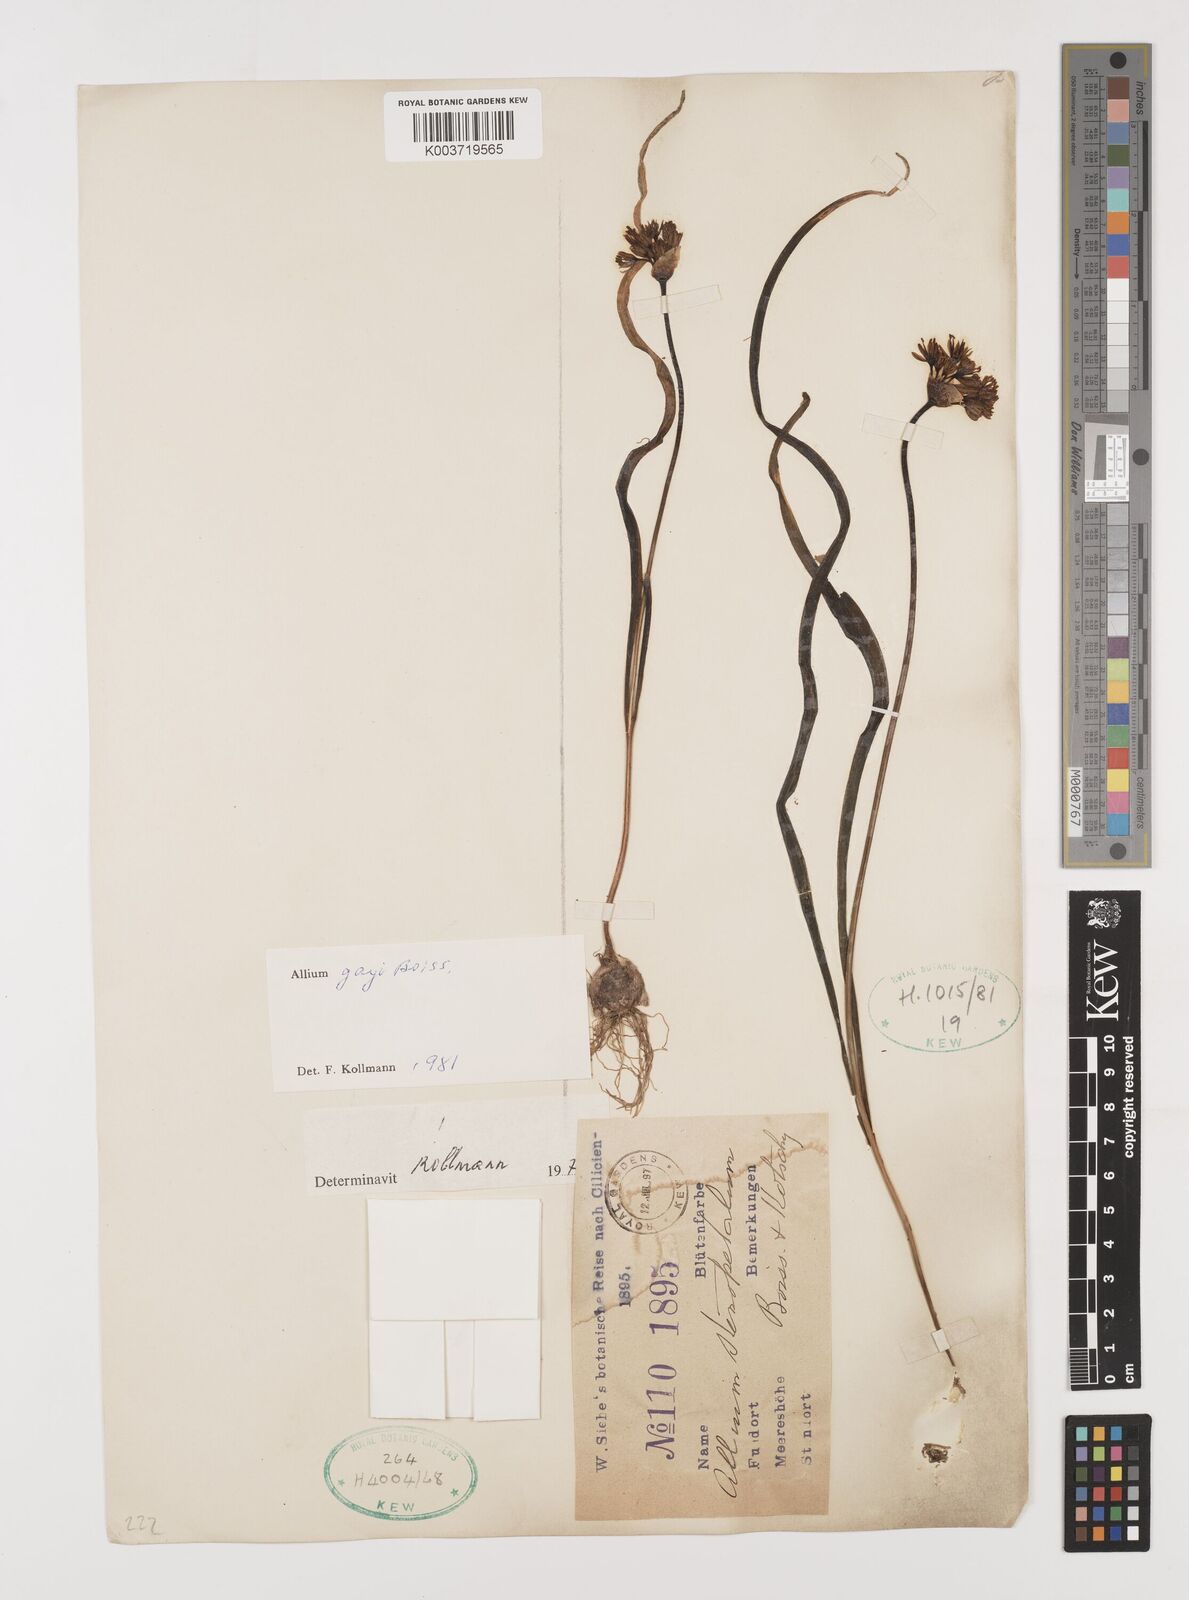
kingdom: Plantae
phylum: Tracheophyta
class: Liliopsida
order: Asparagales
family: Amaryllidaceae
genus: Allium
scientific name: Allium orientale
